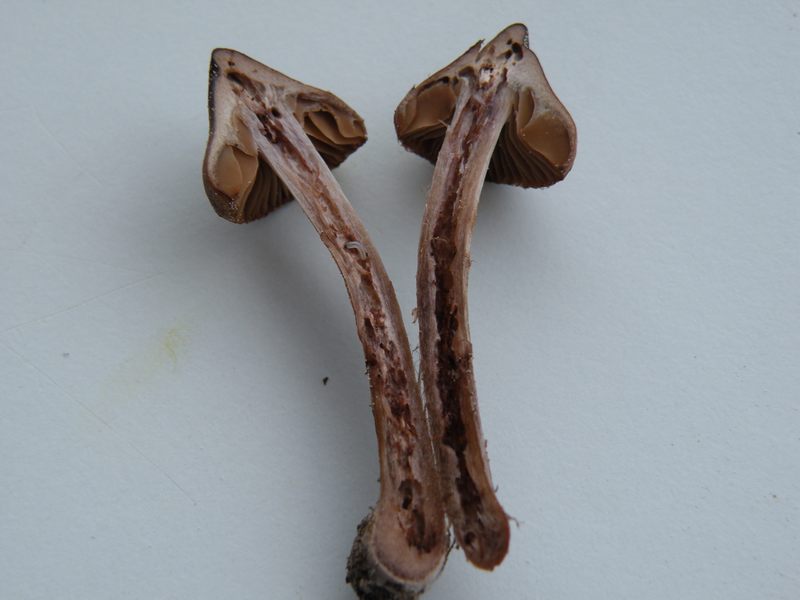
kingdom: Fungi
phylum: Basidiomycota
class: Agaricomycetes
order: Agaricales
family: Cortinariaceae
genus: Cortinarius
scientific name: Cortinarius vernus
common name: sommer-slørhat
